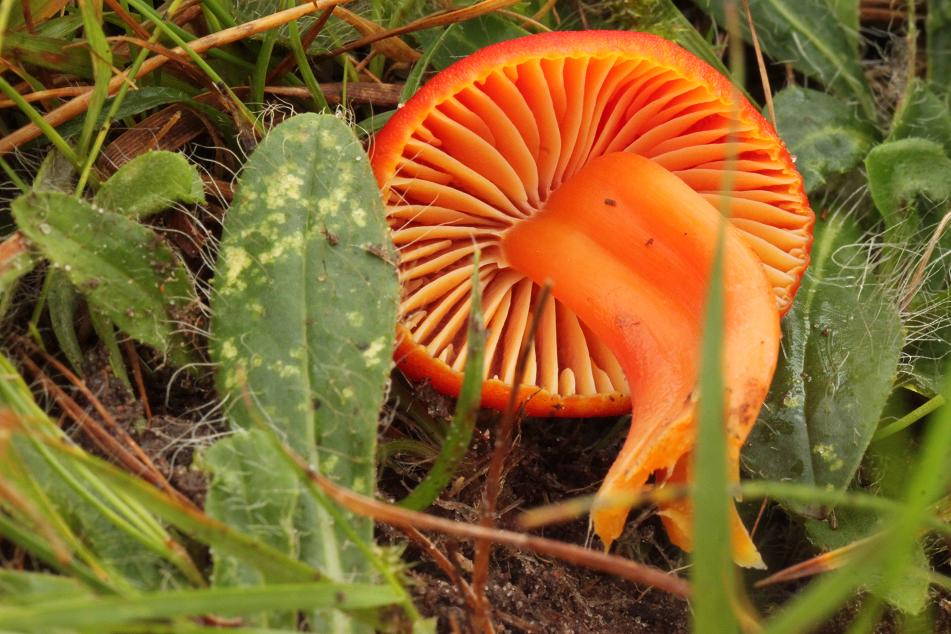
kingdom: Fungi
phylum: Basidiomycota
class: Agaricomycetes
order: Agaricales
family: Hygrophoraceae
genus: Hygrocybe
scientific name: Hygrocybe coccinea
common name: cinnober-vokshat
